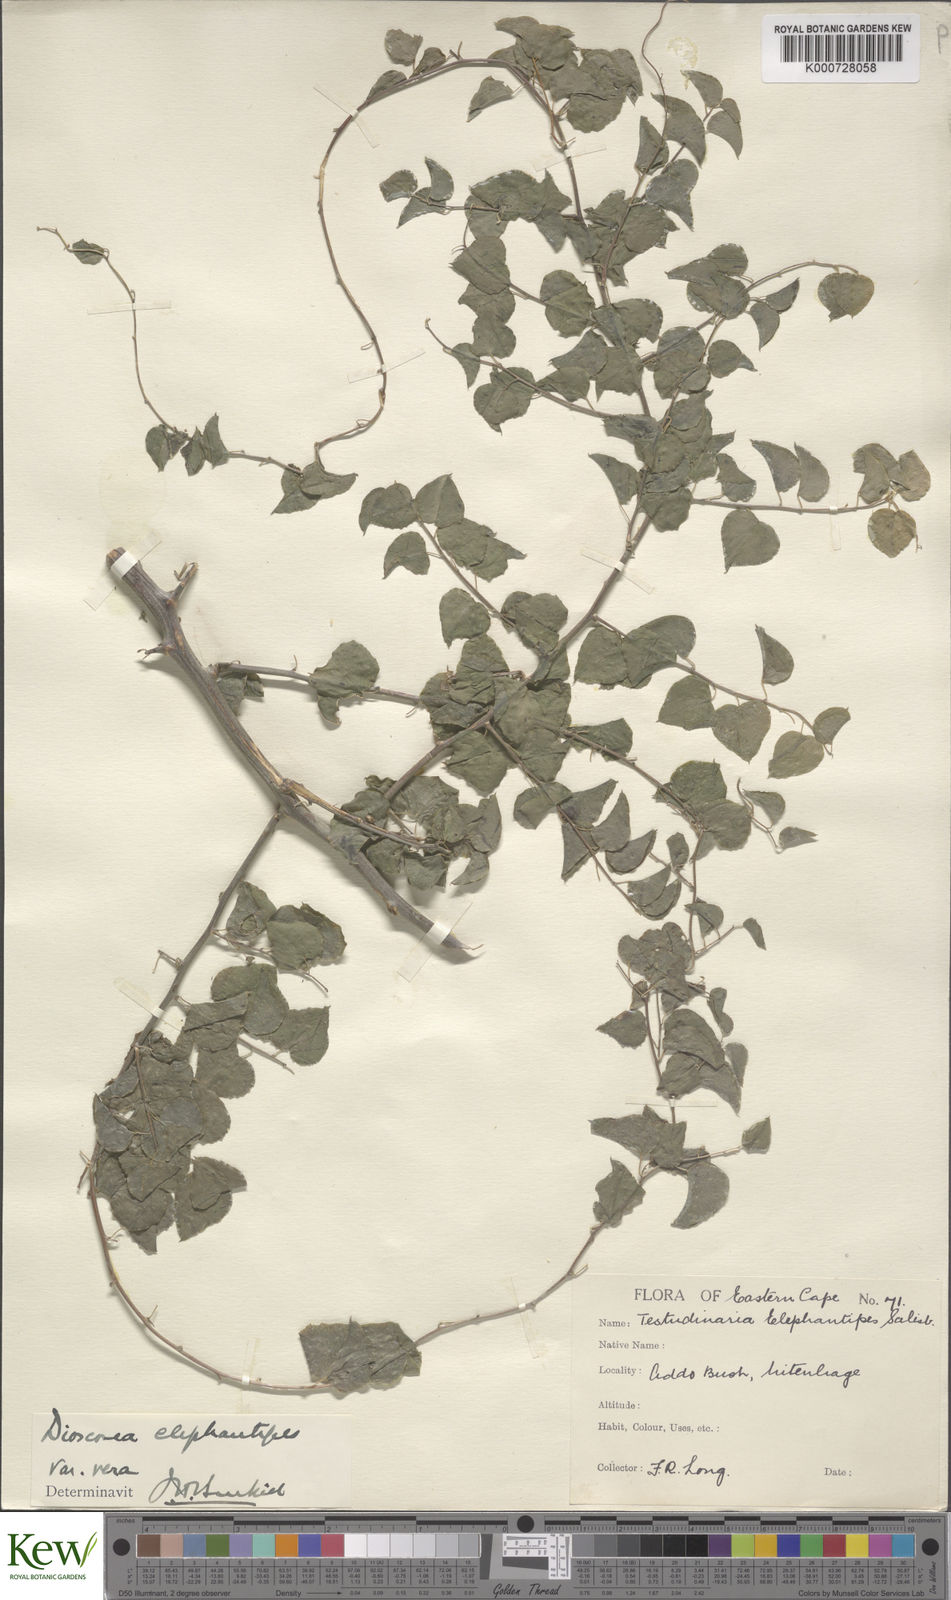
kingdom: Plantae
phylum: Tracheophyta
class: Liliopsida
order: Dioscoreales
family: Dioscoreaceae
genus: Dioscorea
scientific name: Dioscorea
